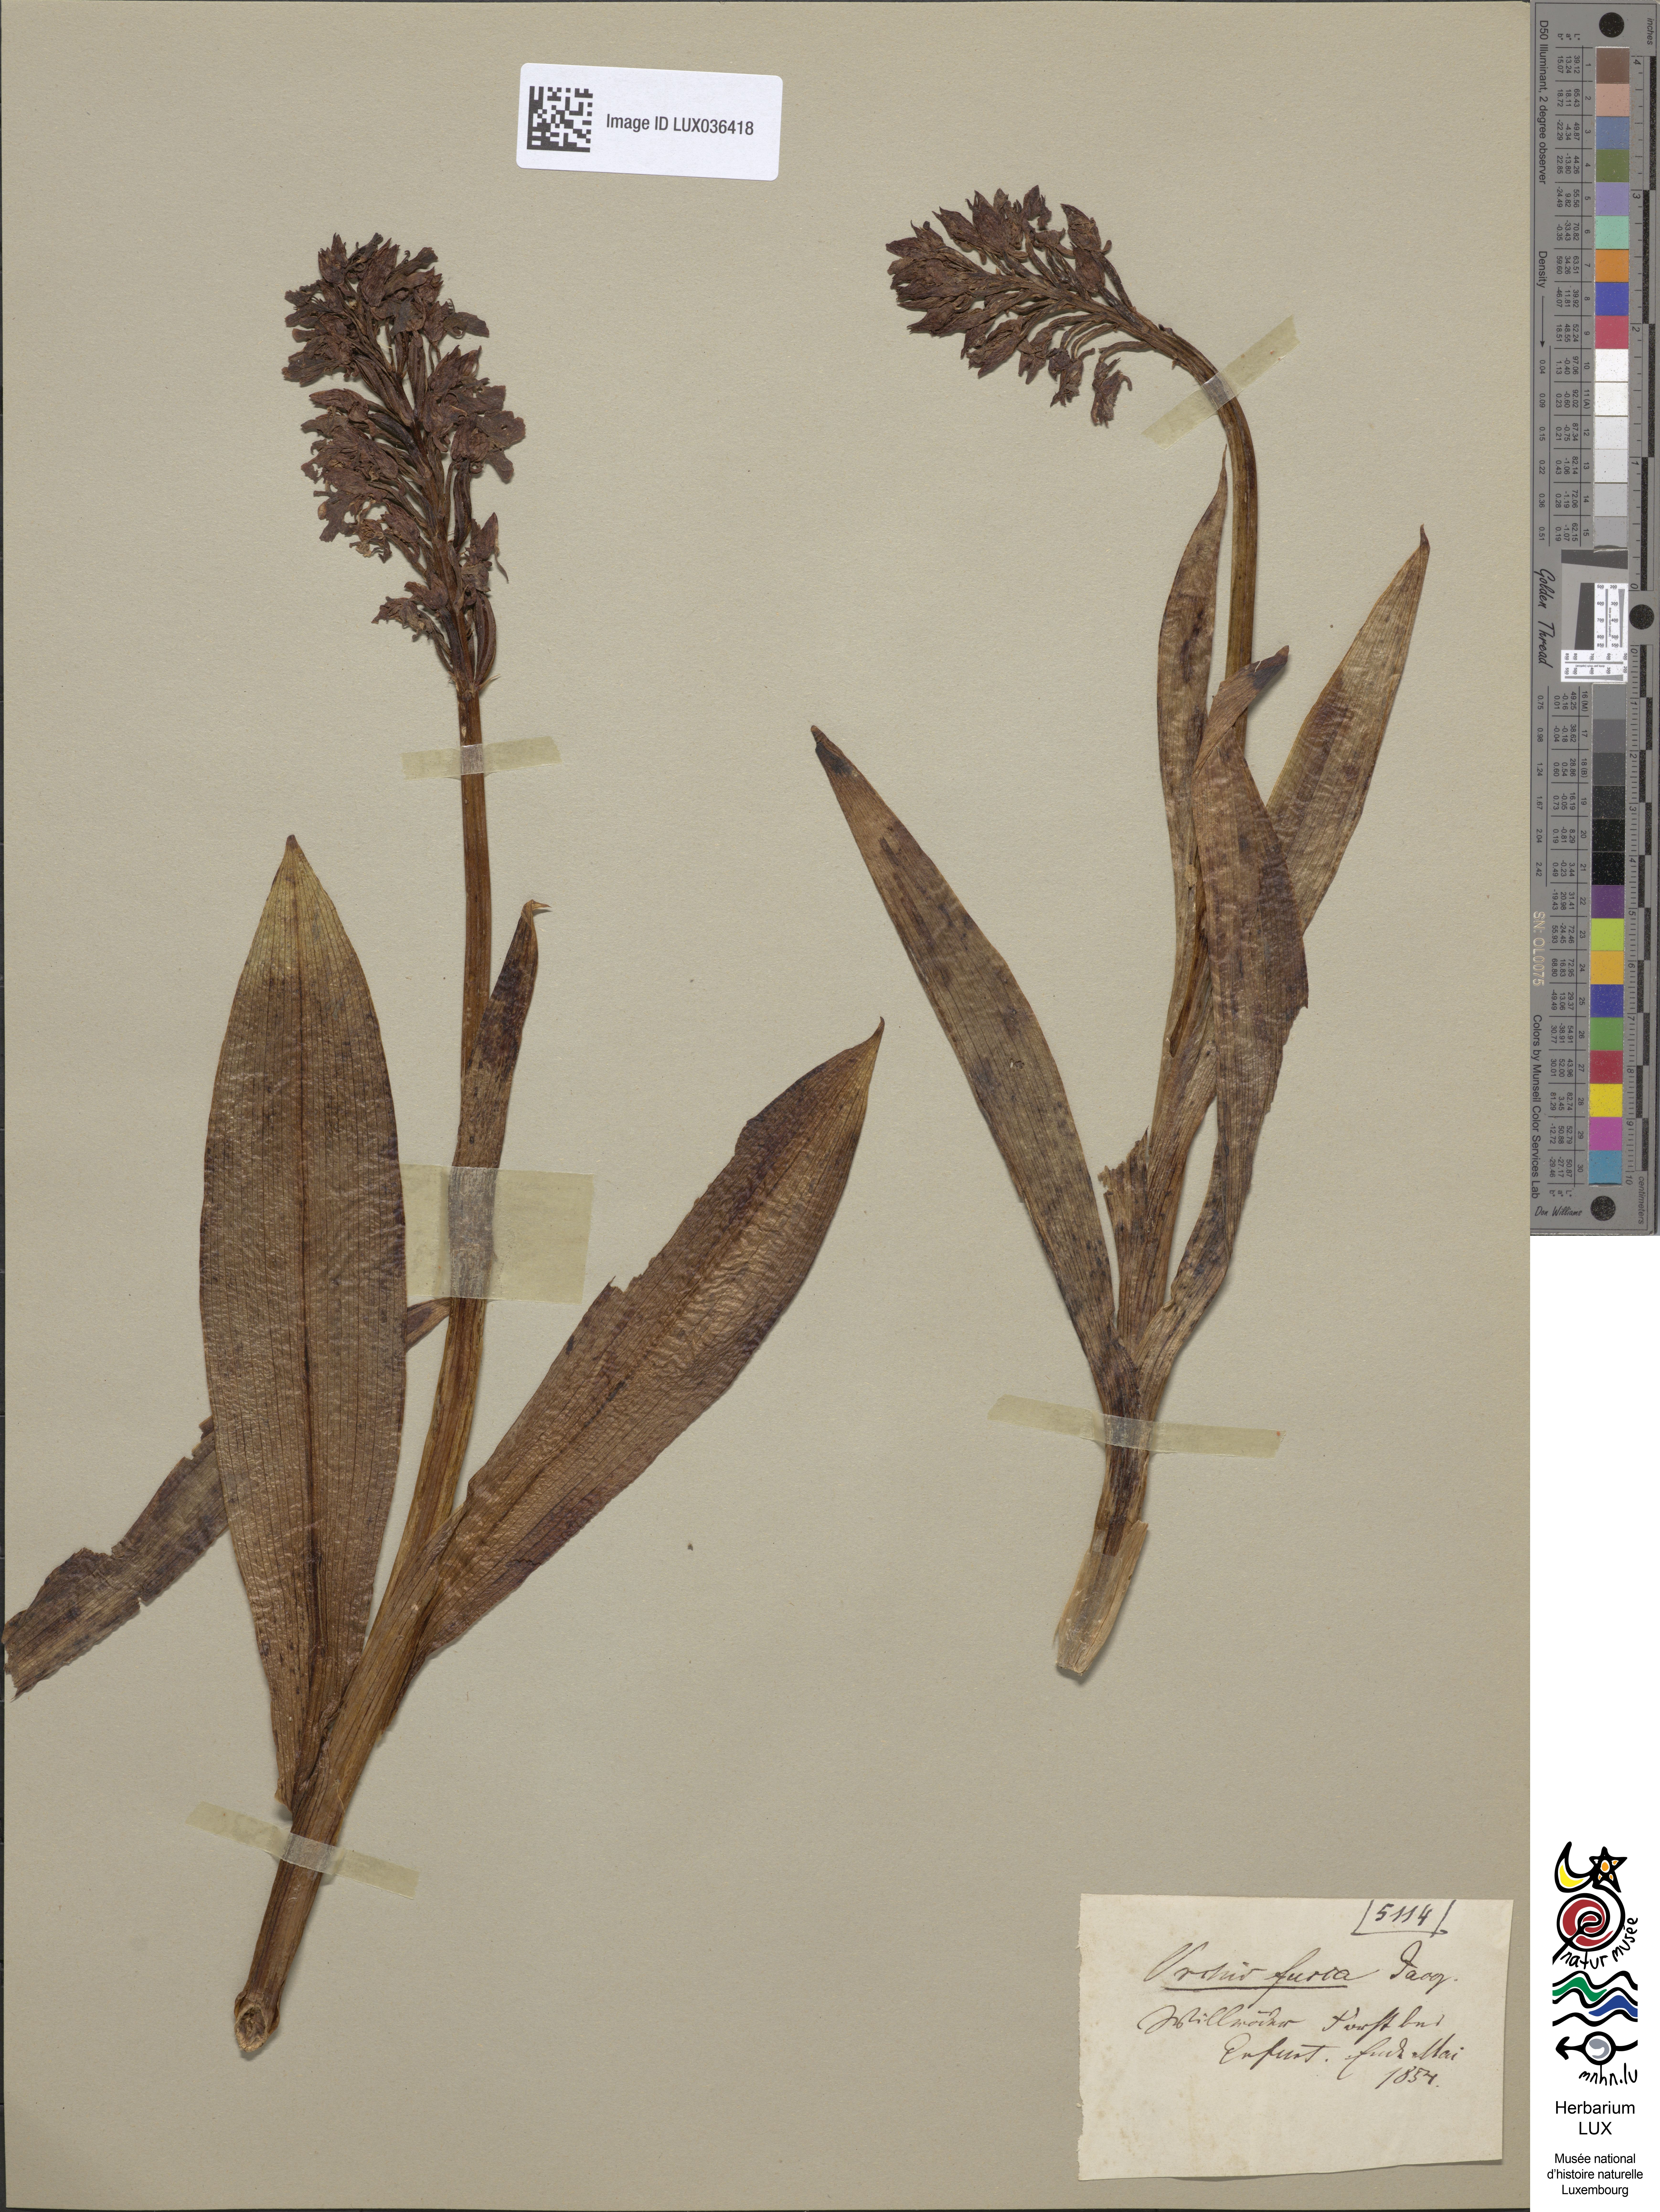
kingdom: Plantae
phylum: Tracheophyta
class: Liliopsida
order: Asparagales
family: Orchidaceae
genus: Orchis
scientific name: Orchis purpurea
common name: Lady orchid
